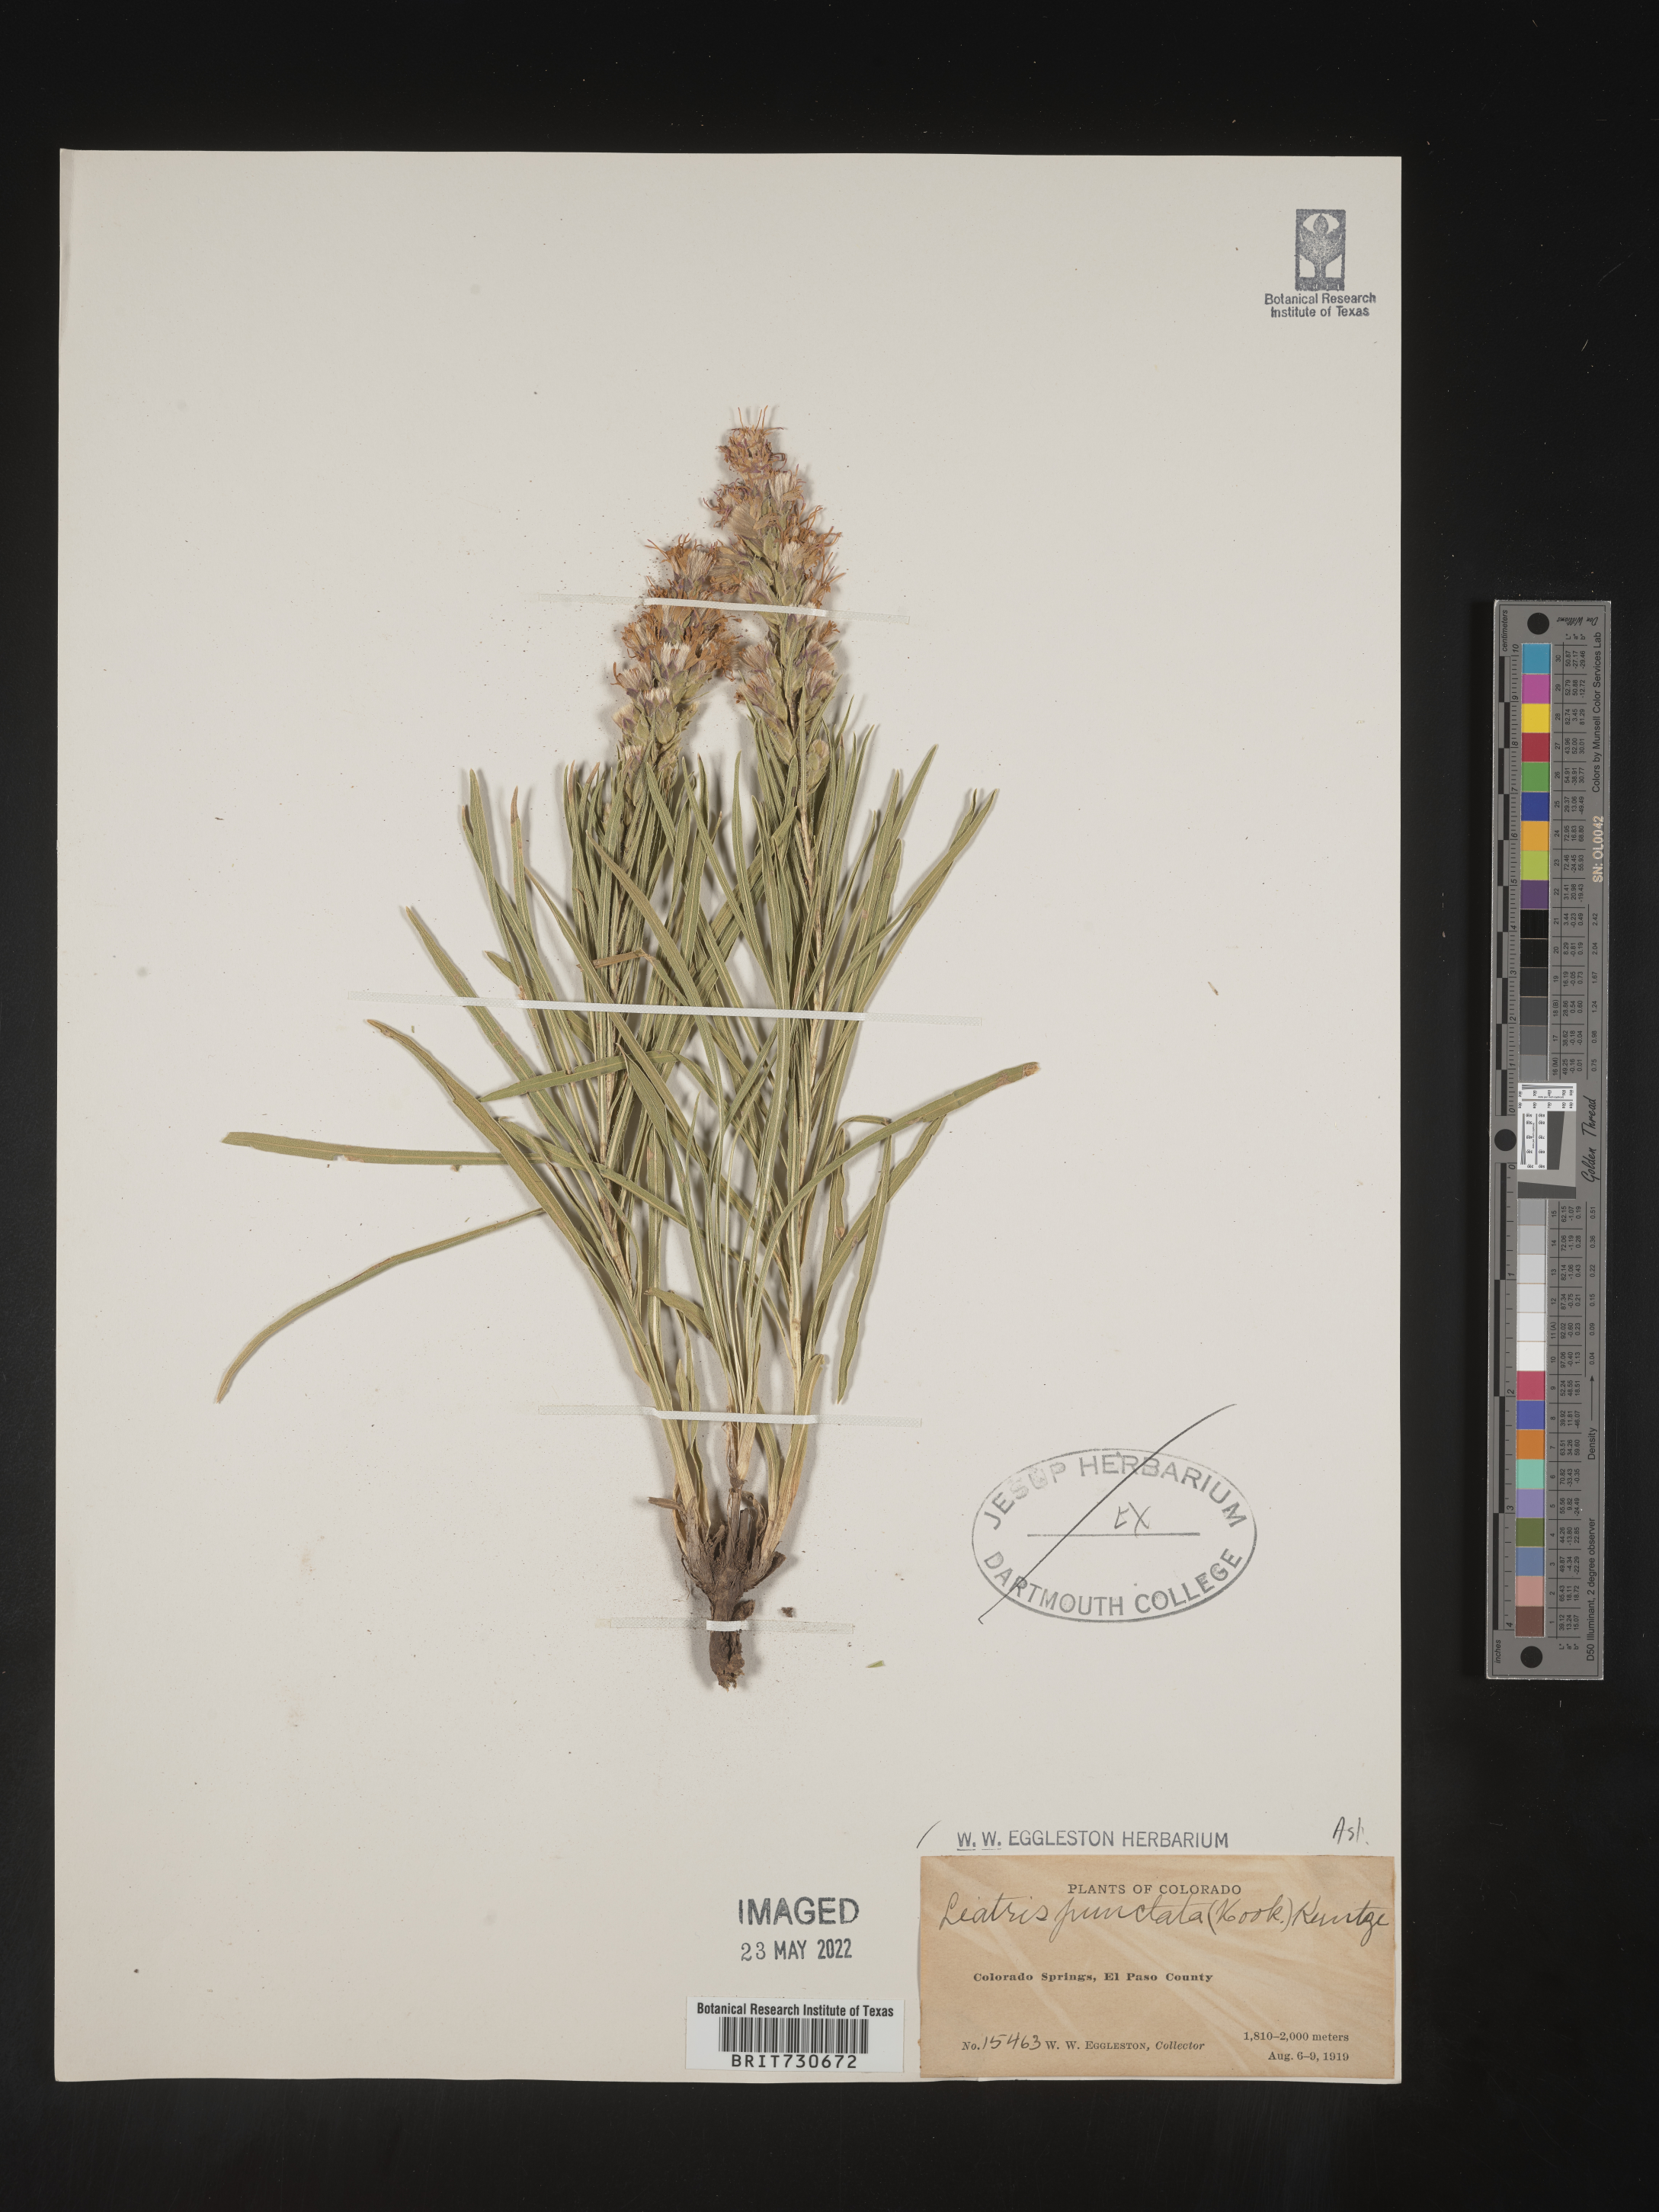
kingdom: Plantae
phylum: Tracheophyta
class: Magnoliopsida
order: Asterales
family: Asteraceae
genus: Liatris
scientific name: Liatris punctata
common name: Dotted gayfeather
